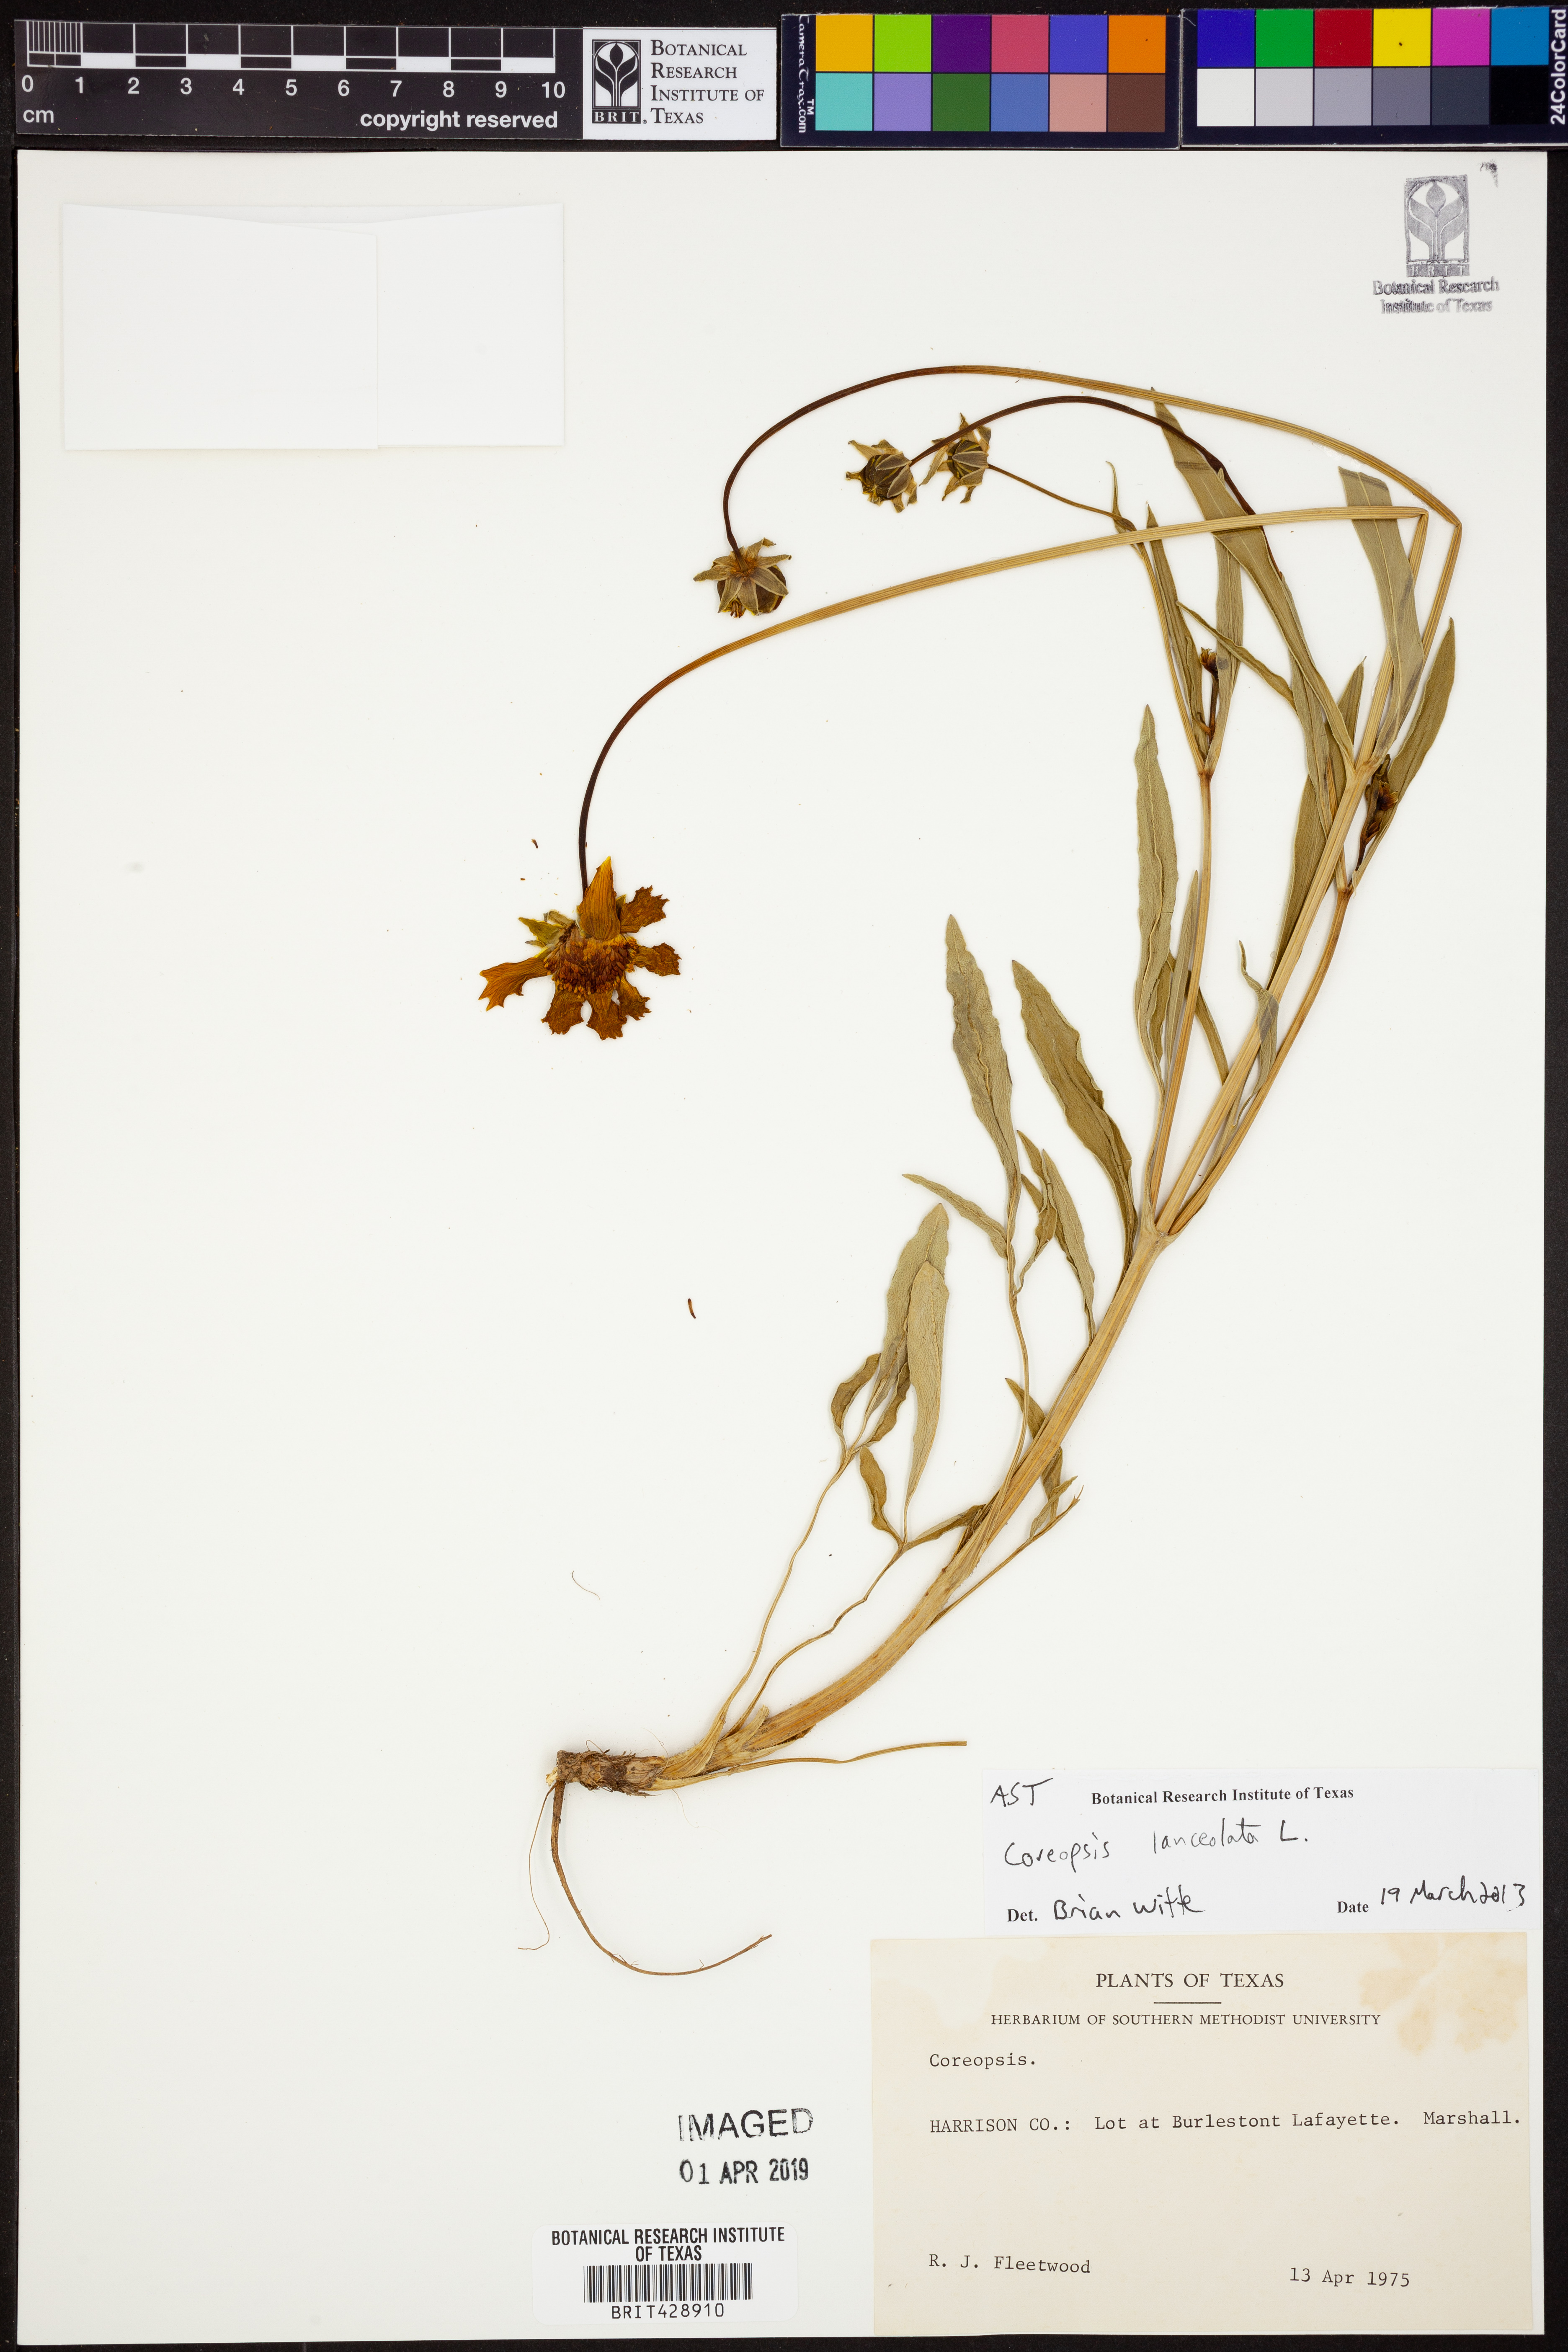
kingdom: Plantae
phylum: Tracheophyta
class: Magnoliopsida
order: Asterales
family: Asteraceae
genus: Coreopsis
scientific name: Coreopsis lanceolata
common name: Garden coreopsis
